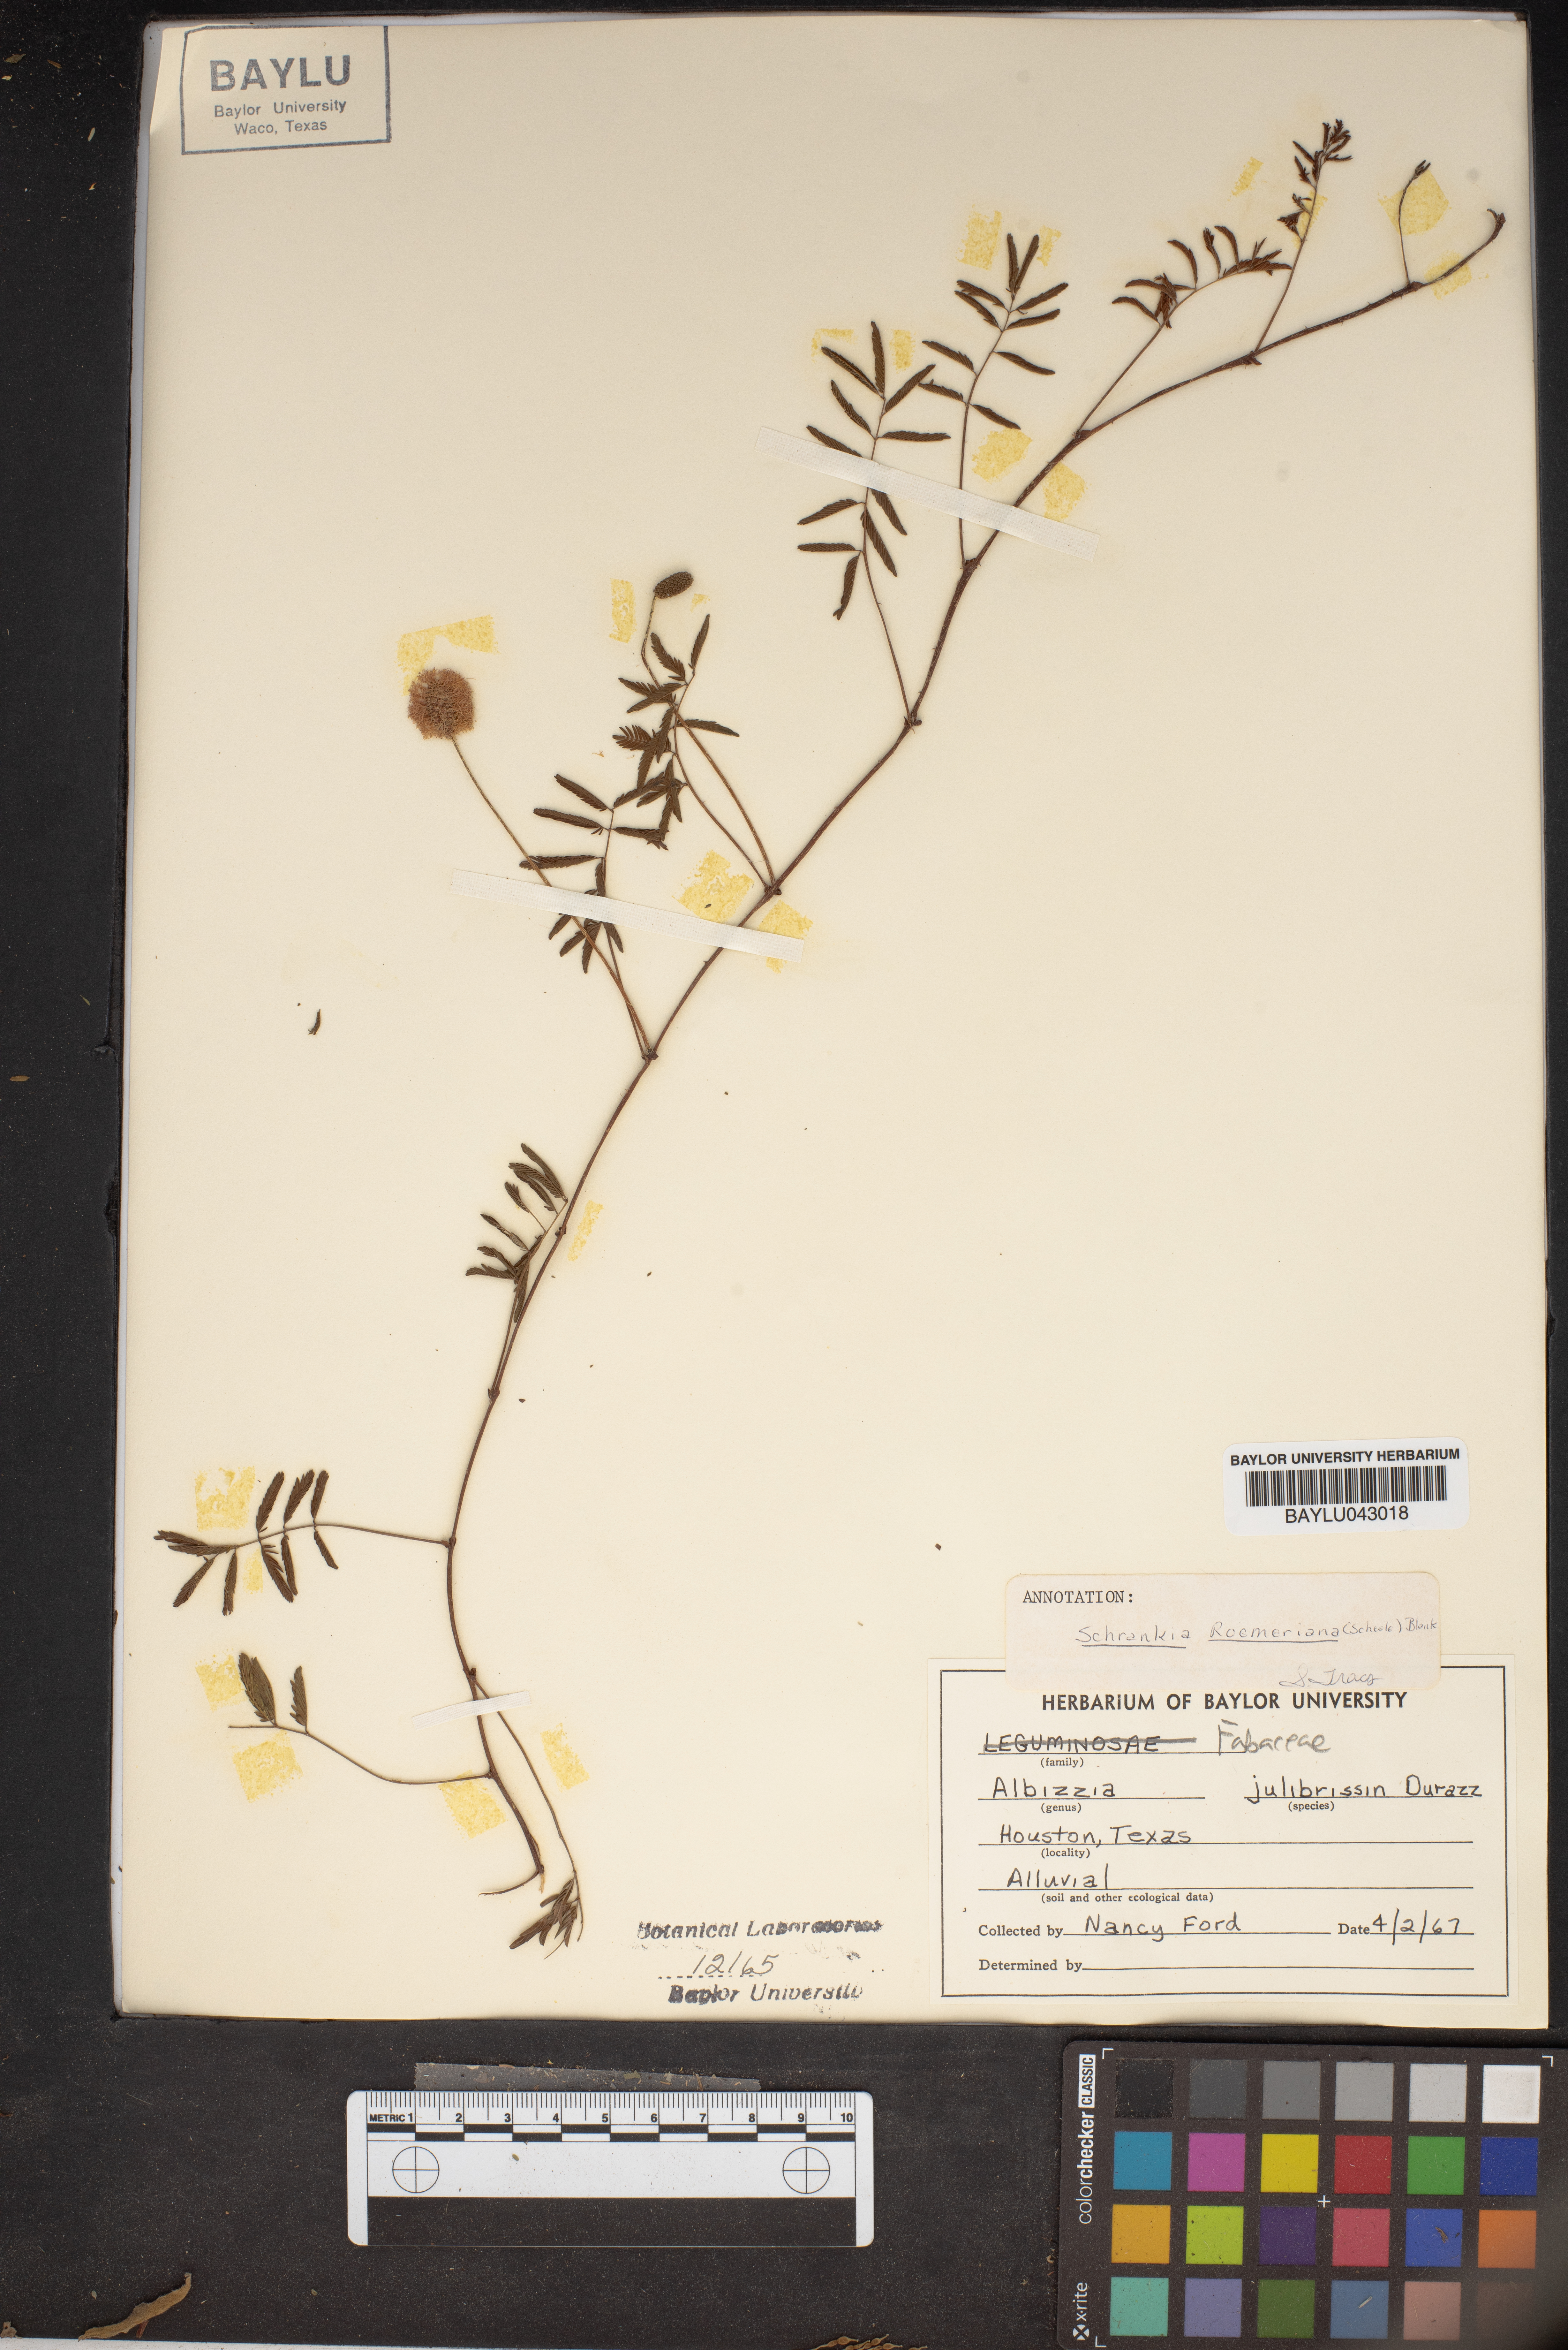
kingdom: Plantae
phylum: Tracheophyta
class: Magnoliopsida
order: Fabales
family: Fabaceae
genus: Albizia
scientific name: Albizia julibrissin
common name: Silktree
